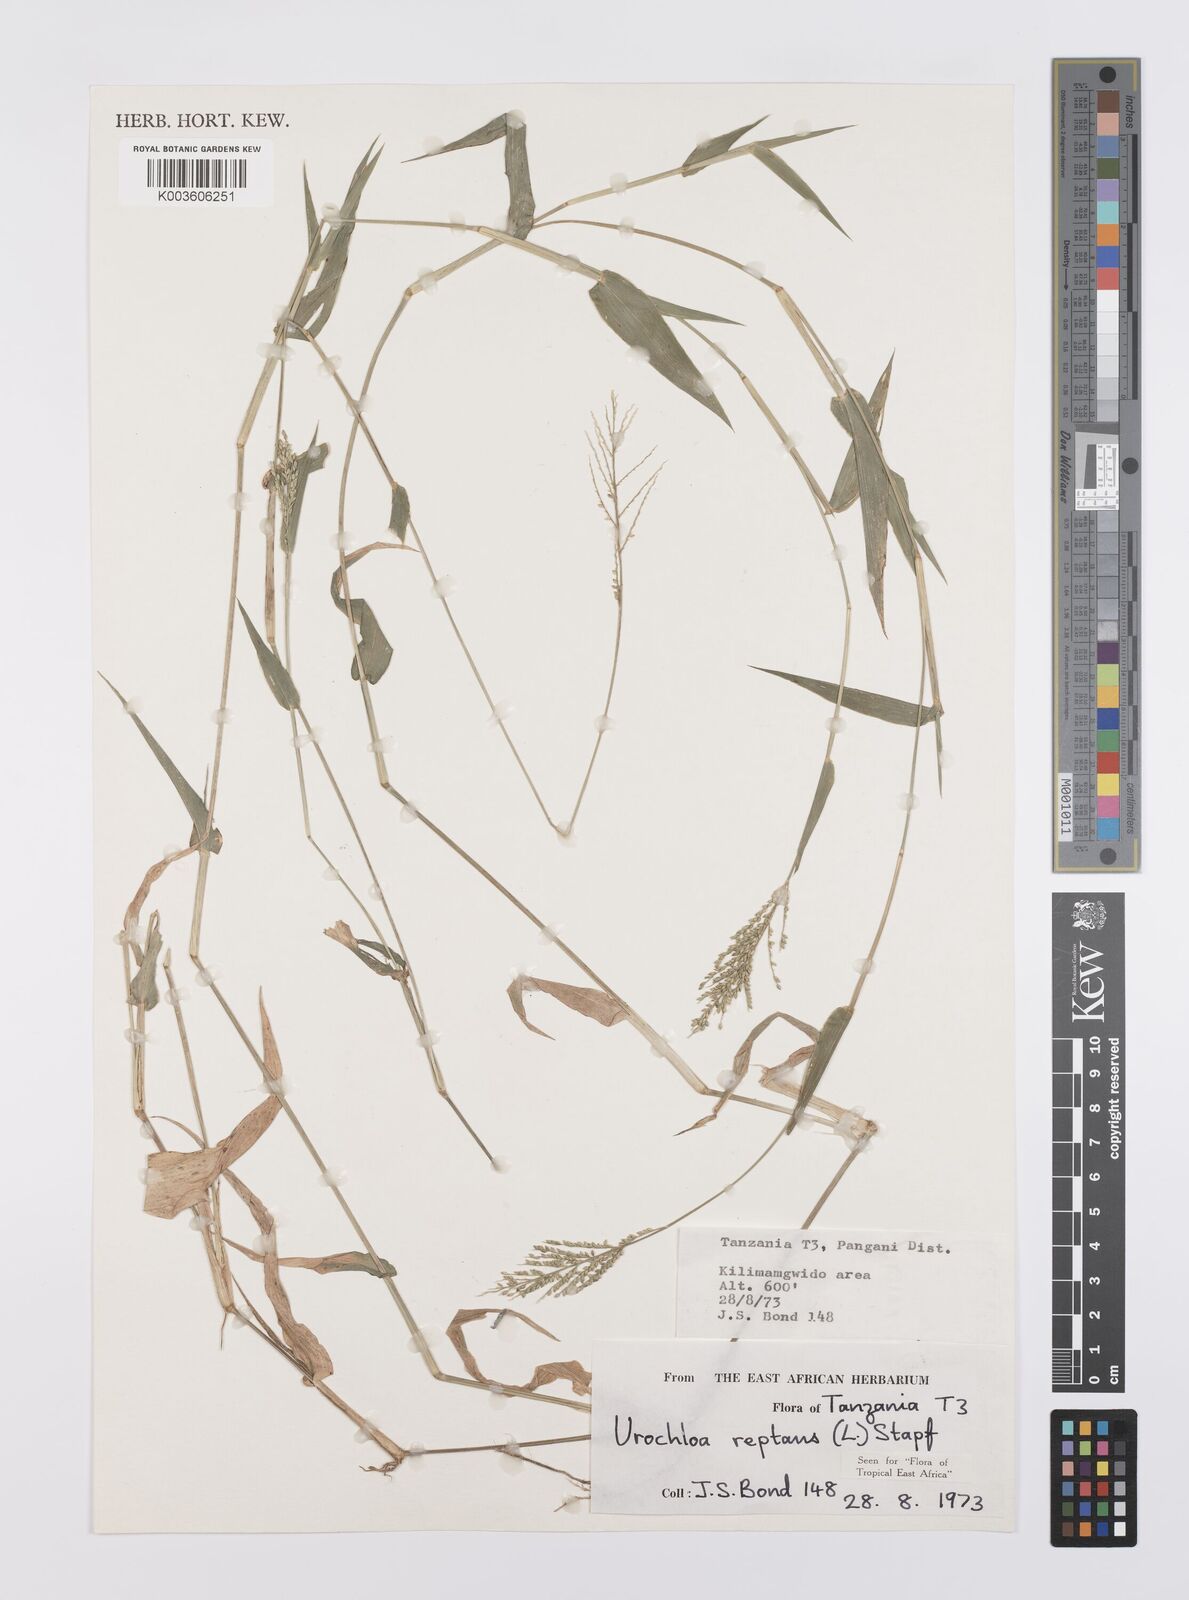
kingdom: Plantae
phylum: Tracheophyta
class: Liliopsida
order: Poales
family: Poaceae
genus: Urochloa
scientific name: Urochloa reptans
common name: Sprawling signalgrass
